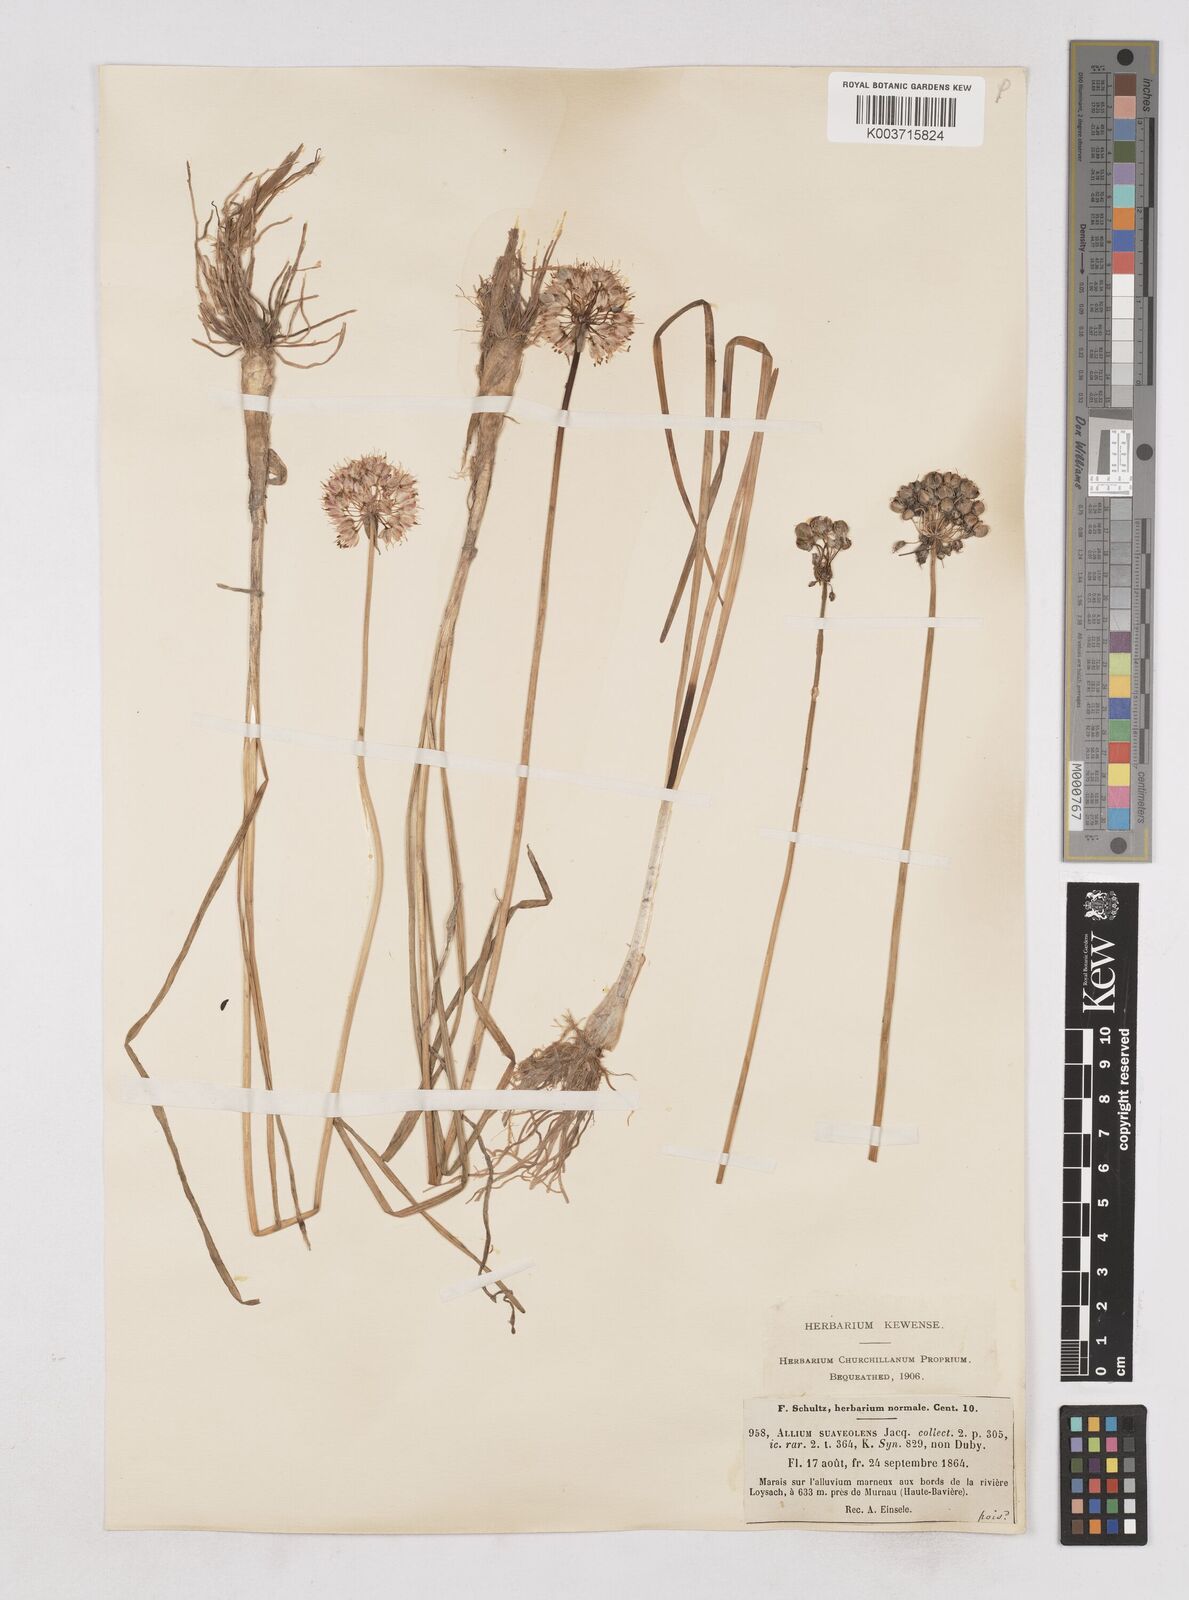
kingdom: Plantae
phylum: Tracheophyta
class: Liliopsida
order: Asparagales
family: Amaryllidaceae
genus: Allium
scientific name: Allium suaveolens
